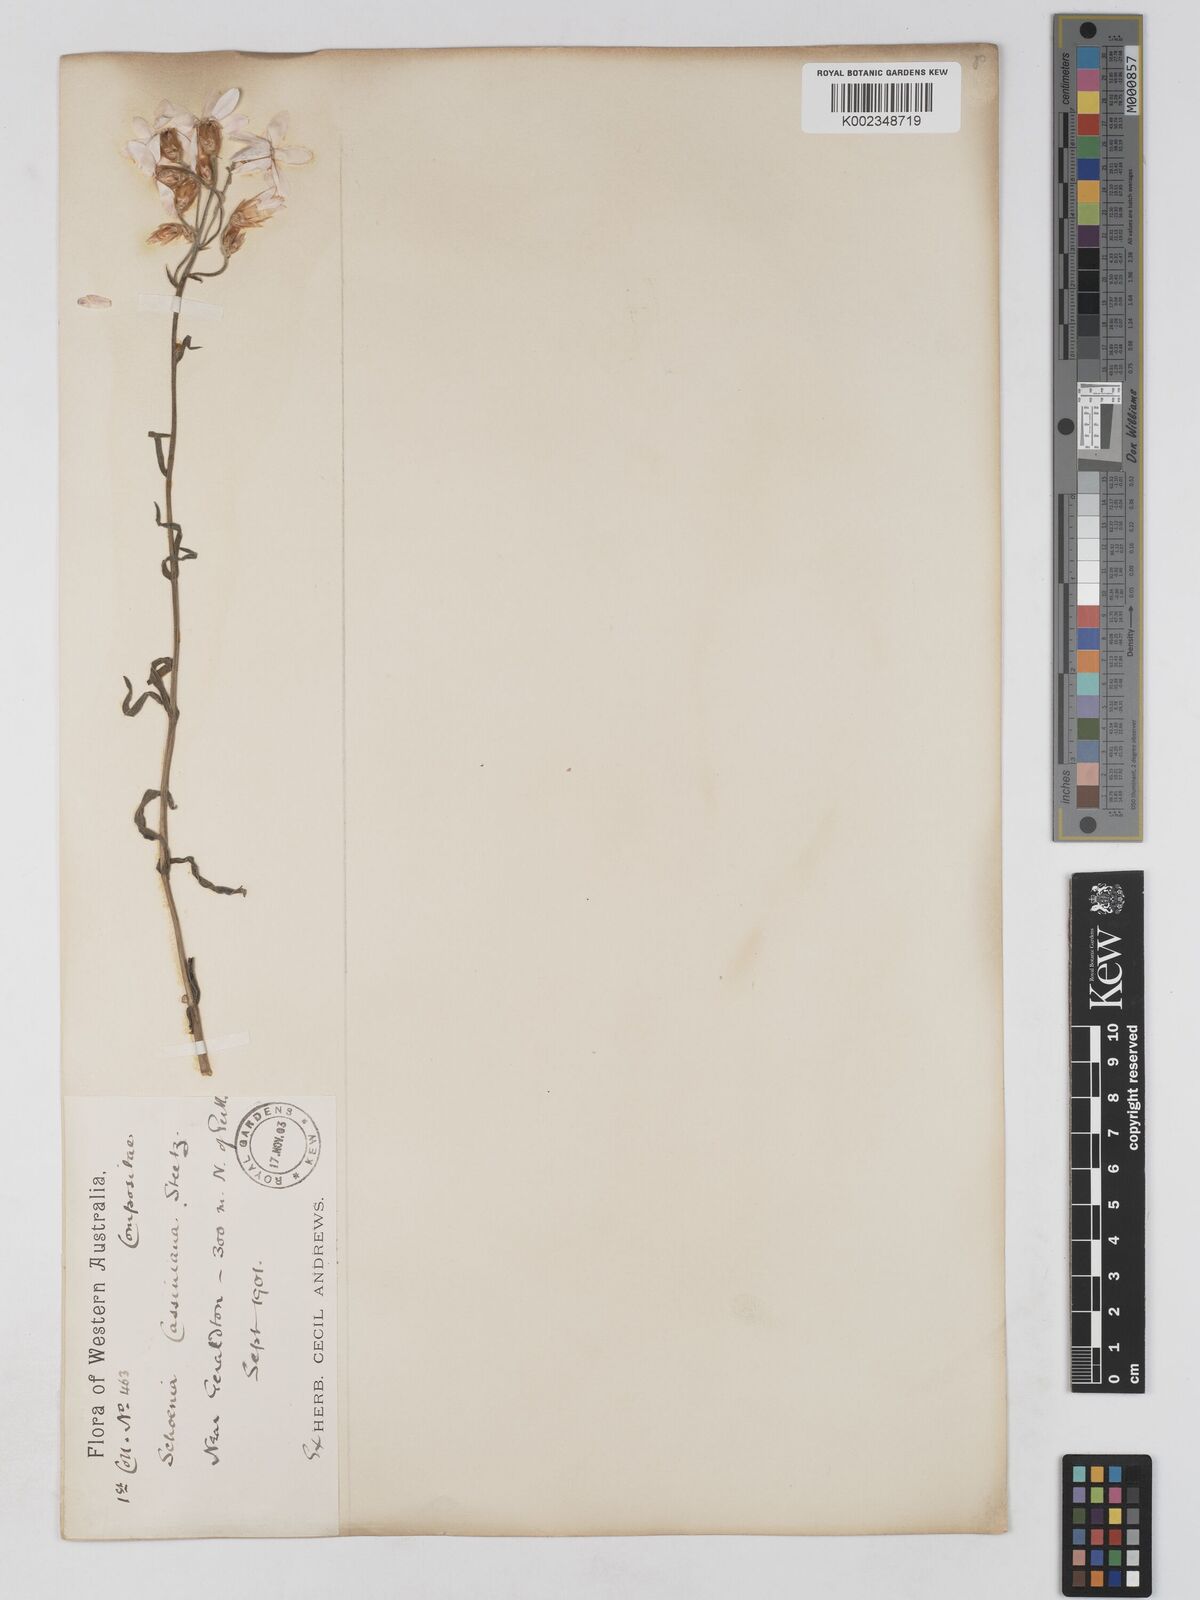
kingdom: Plantae
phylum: Tracheophyta
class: Magnoliopsida
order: Asterales
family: Asteraceae
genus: Schoenia
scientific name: Schoenia cassiniana
